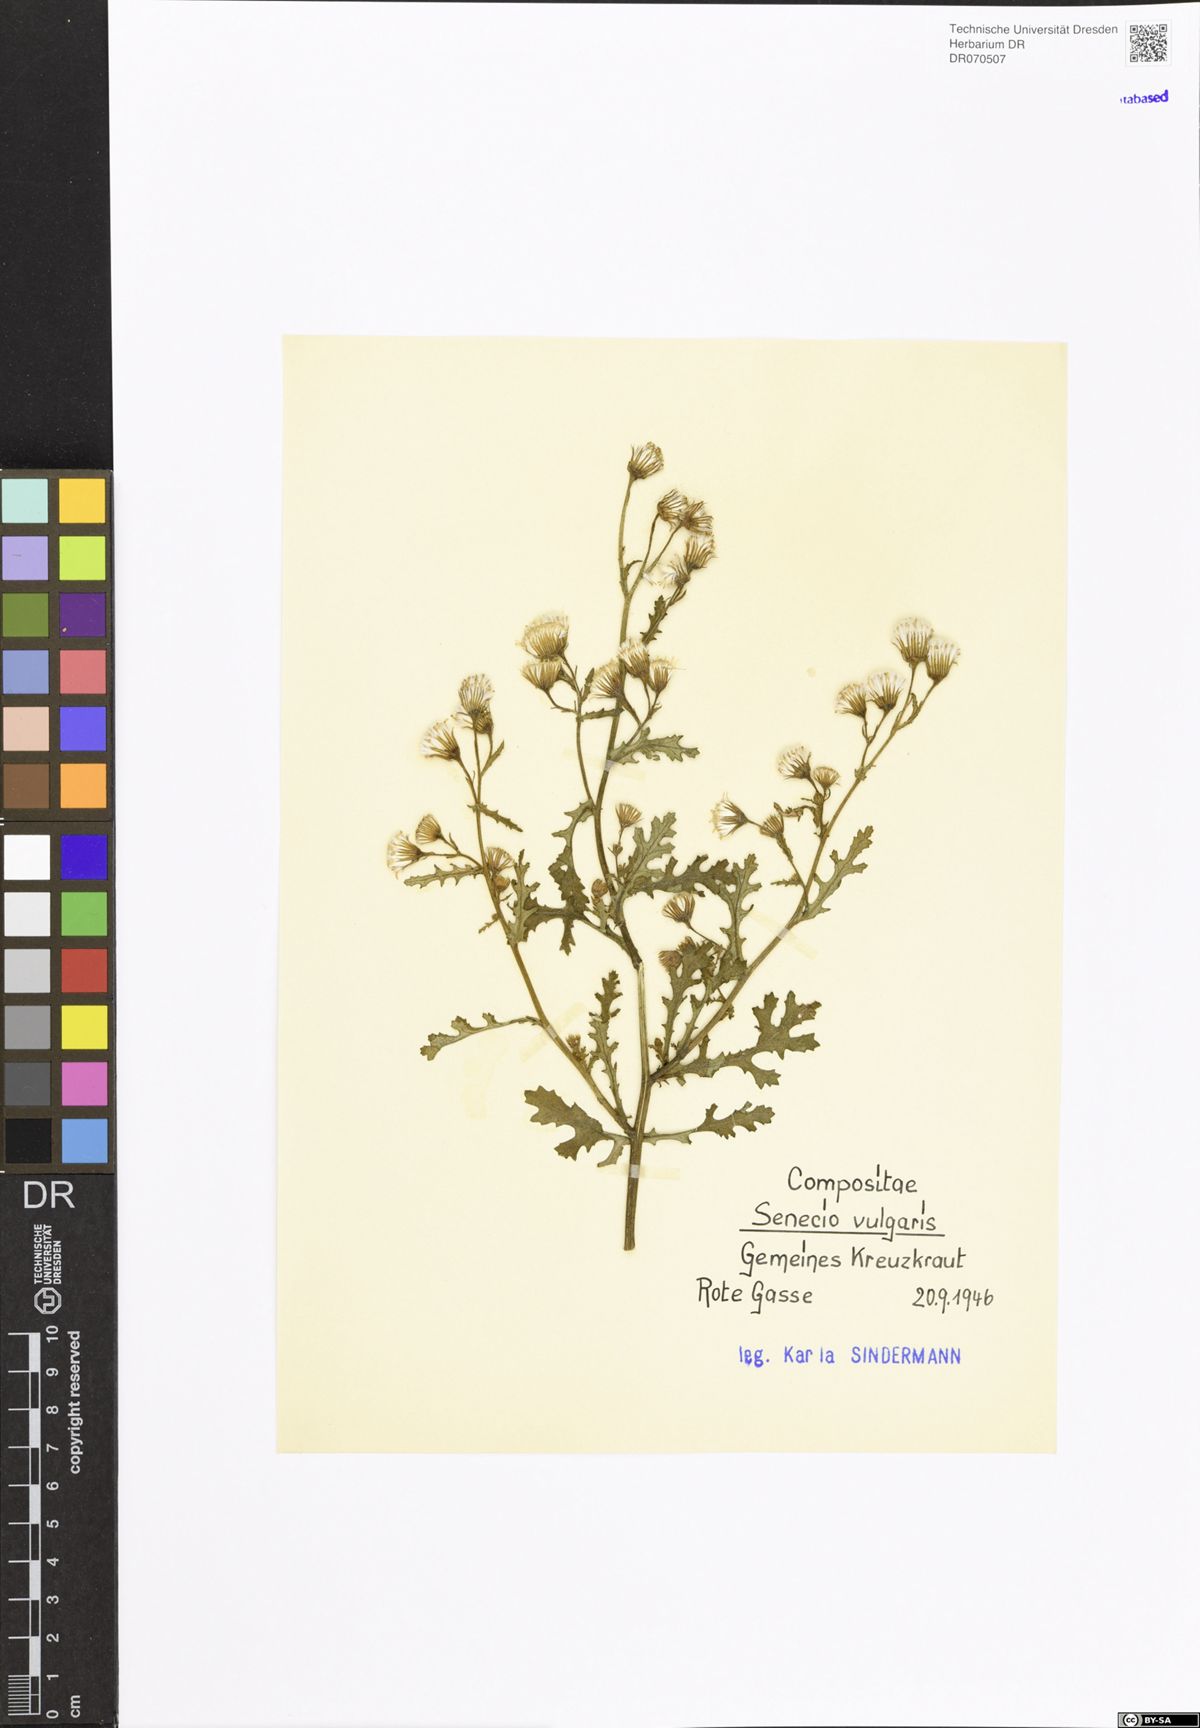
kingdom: Plantae
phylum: Tracheophyta
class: Magnoliopsida
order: Asterales
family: Asteraceae
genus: Senecio
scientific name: Senecio vulgaris
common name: Old-man-in-the-spring
